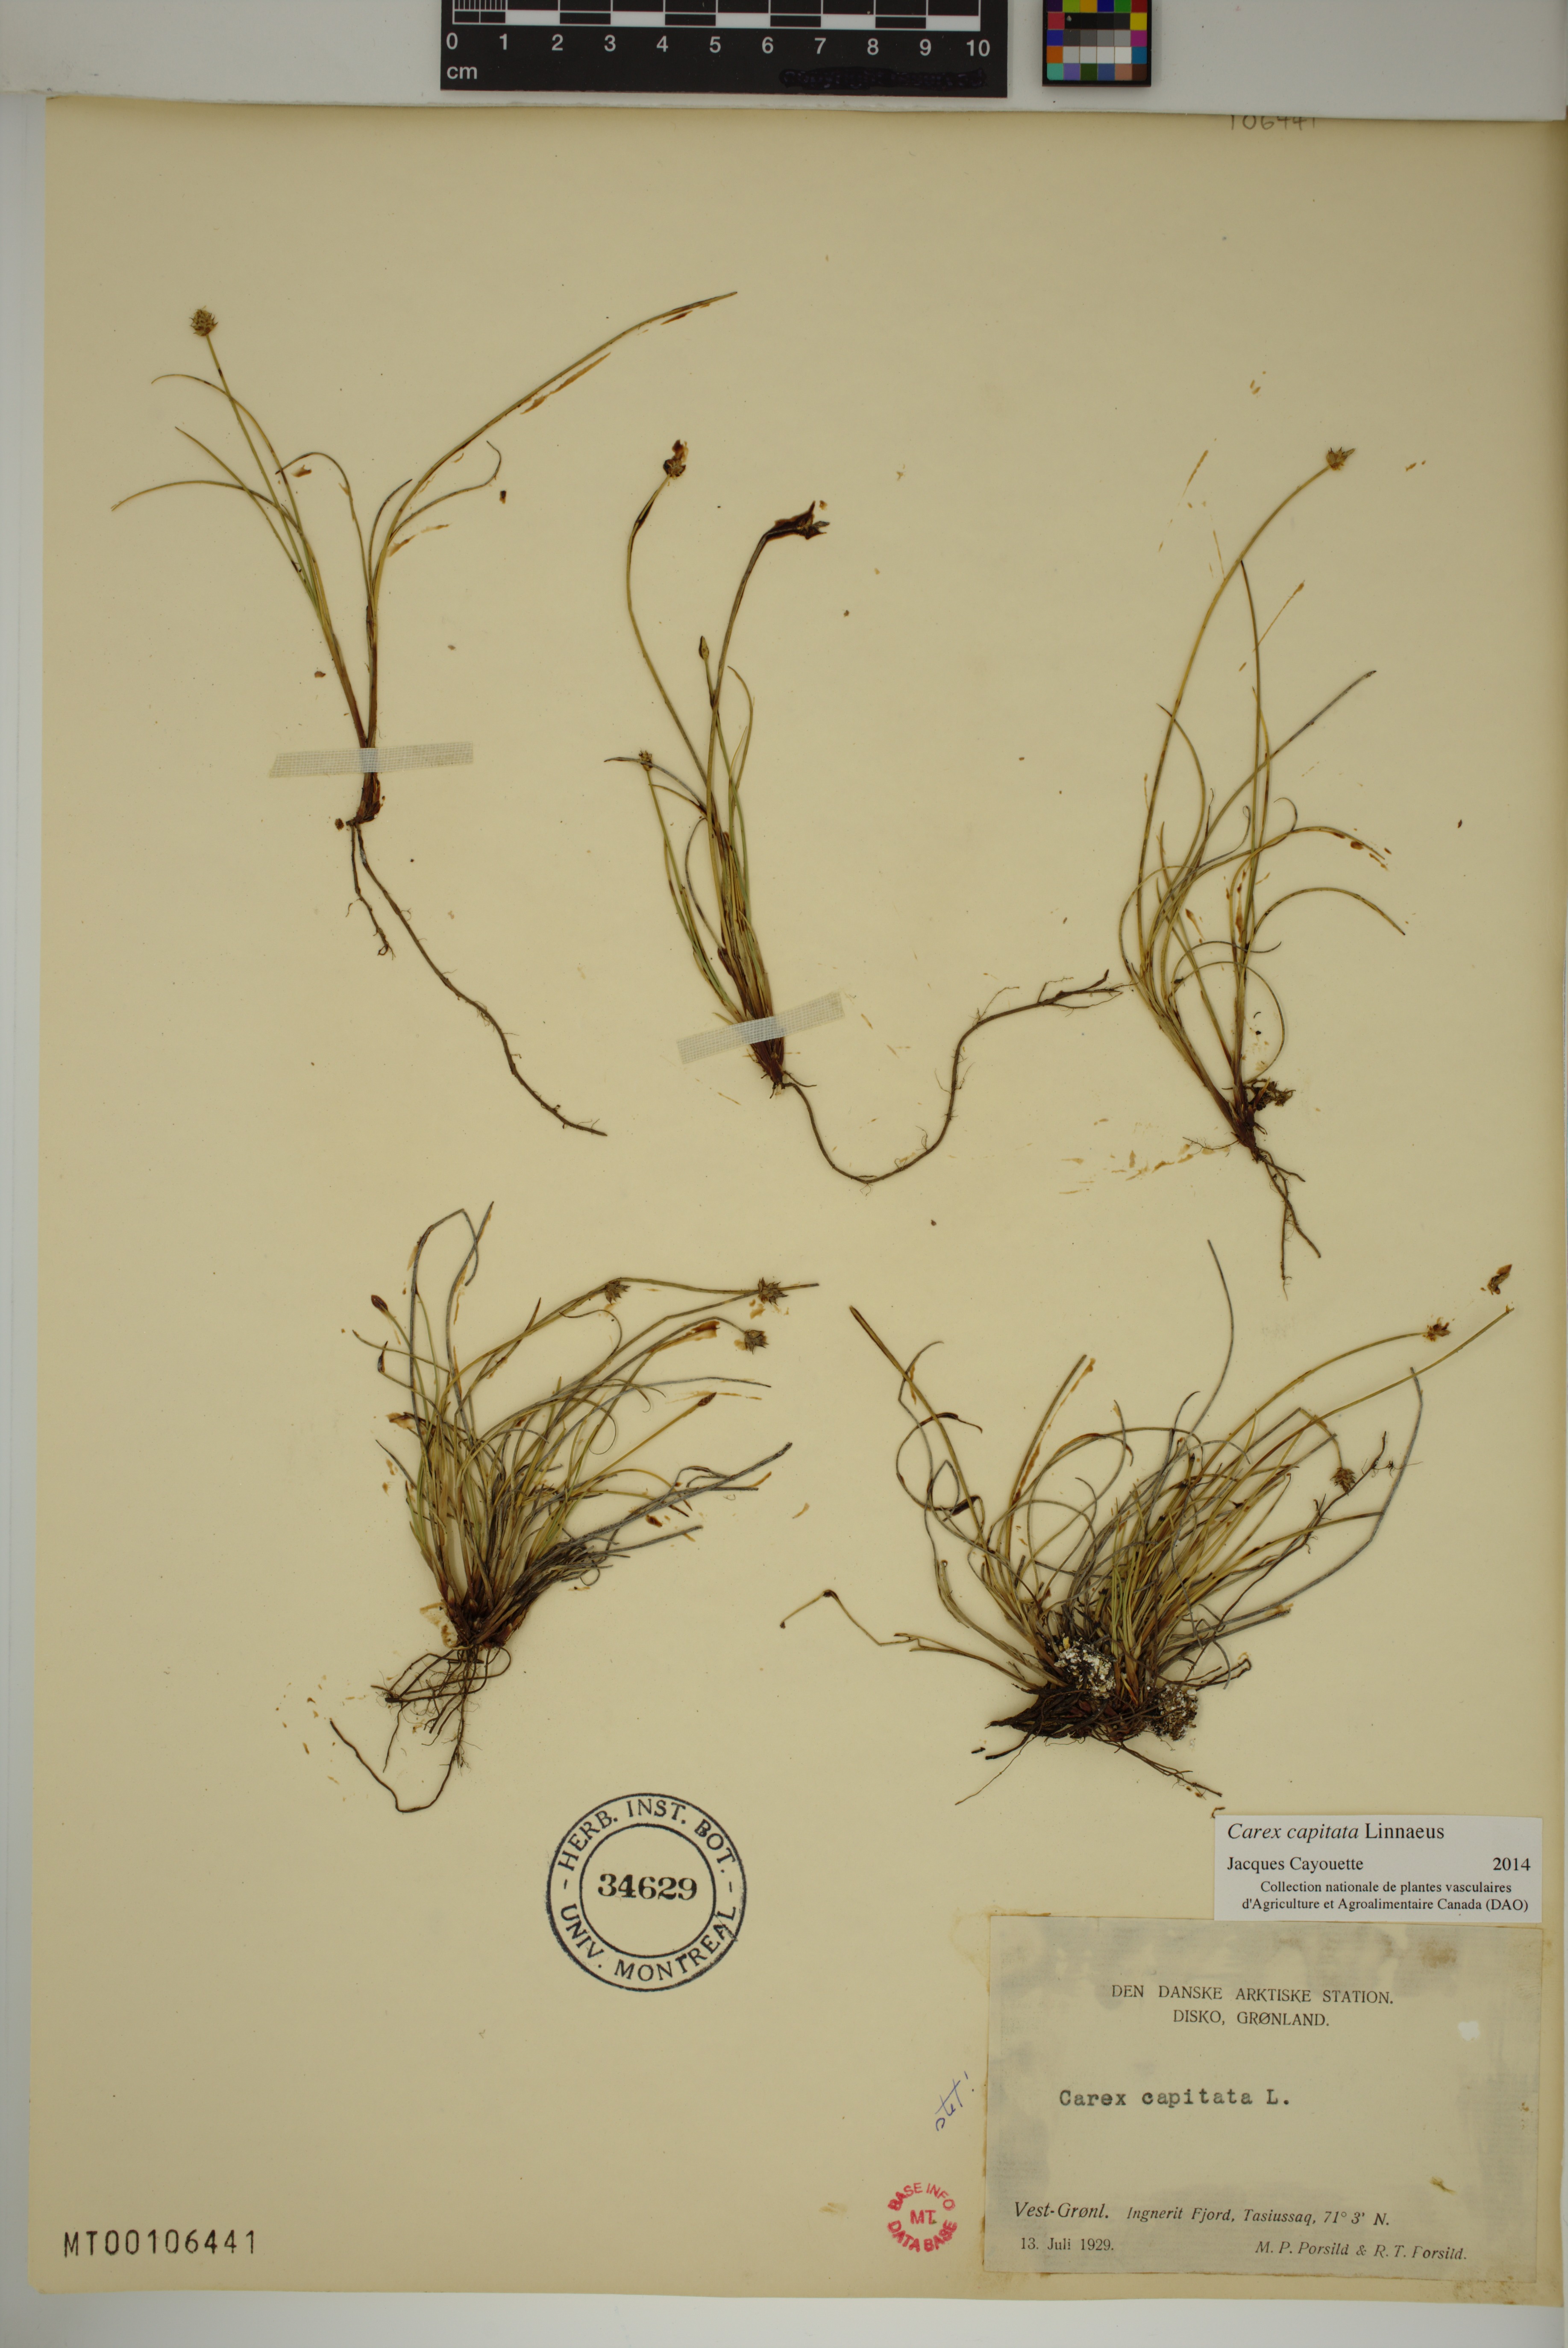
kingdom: Plantae
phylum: Tracheophyta
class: Liliopsida
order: Poales
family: Cyperaceae
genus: Carex
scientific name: Carex capitata
